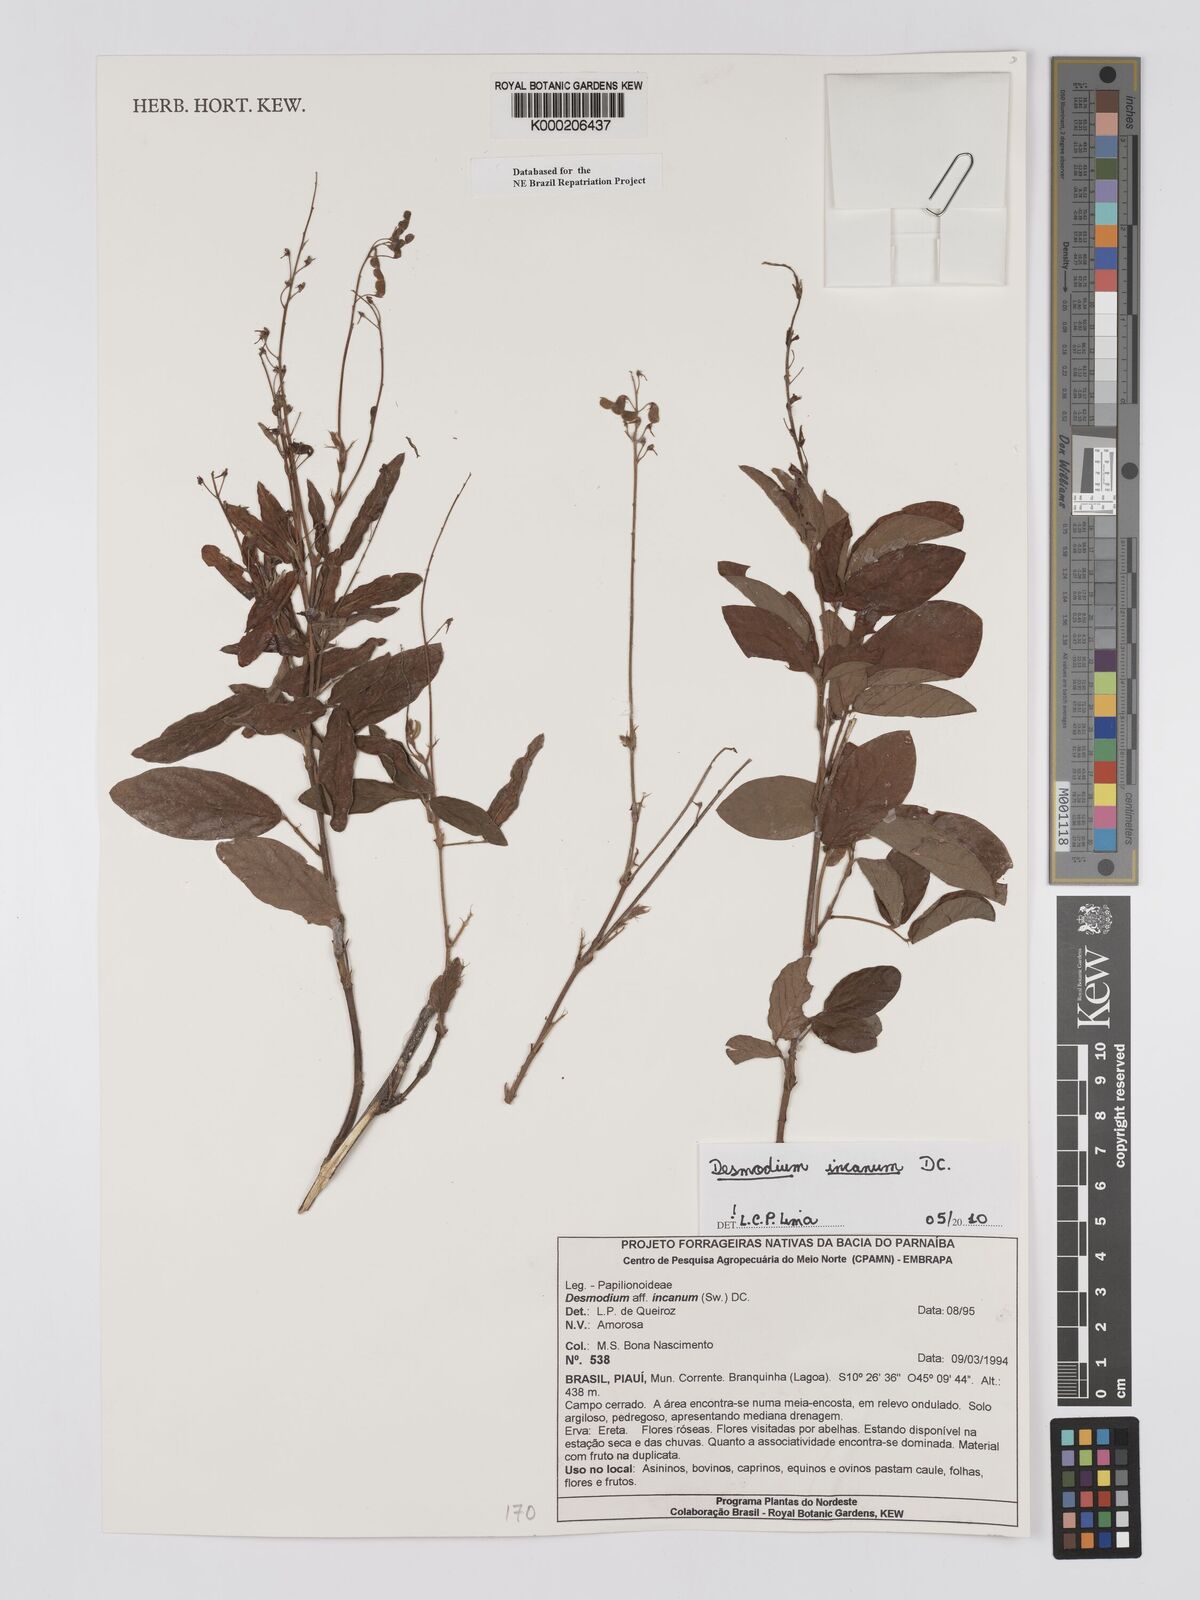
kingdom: Plantae
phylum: Tracheophyta
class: Magnoliopsida
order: Fabales
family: Fabaceae
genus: Desmodium
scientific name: Desmodium incanum
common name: Tickclover
